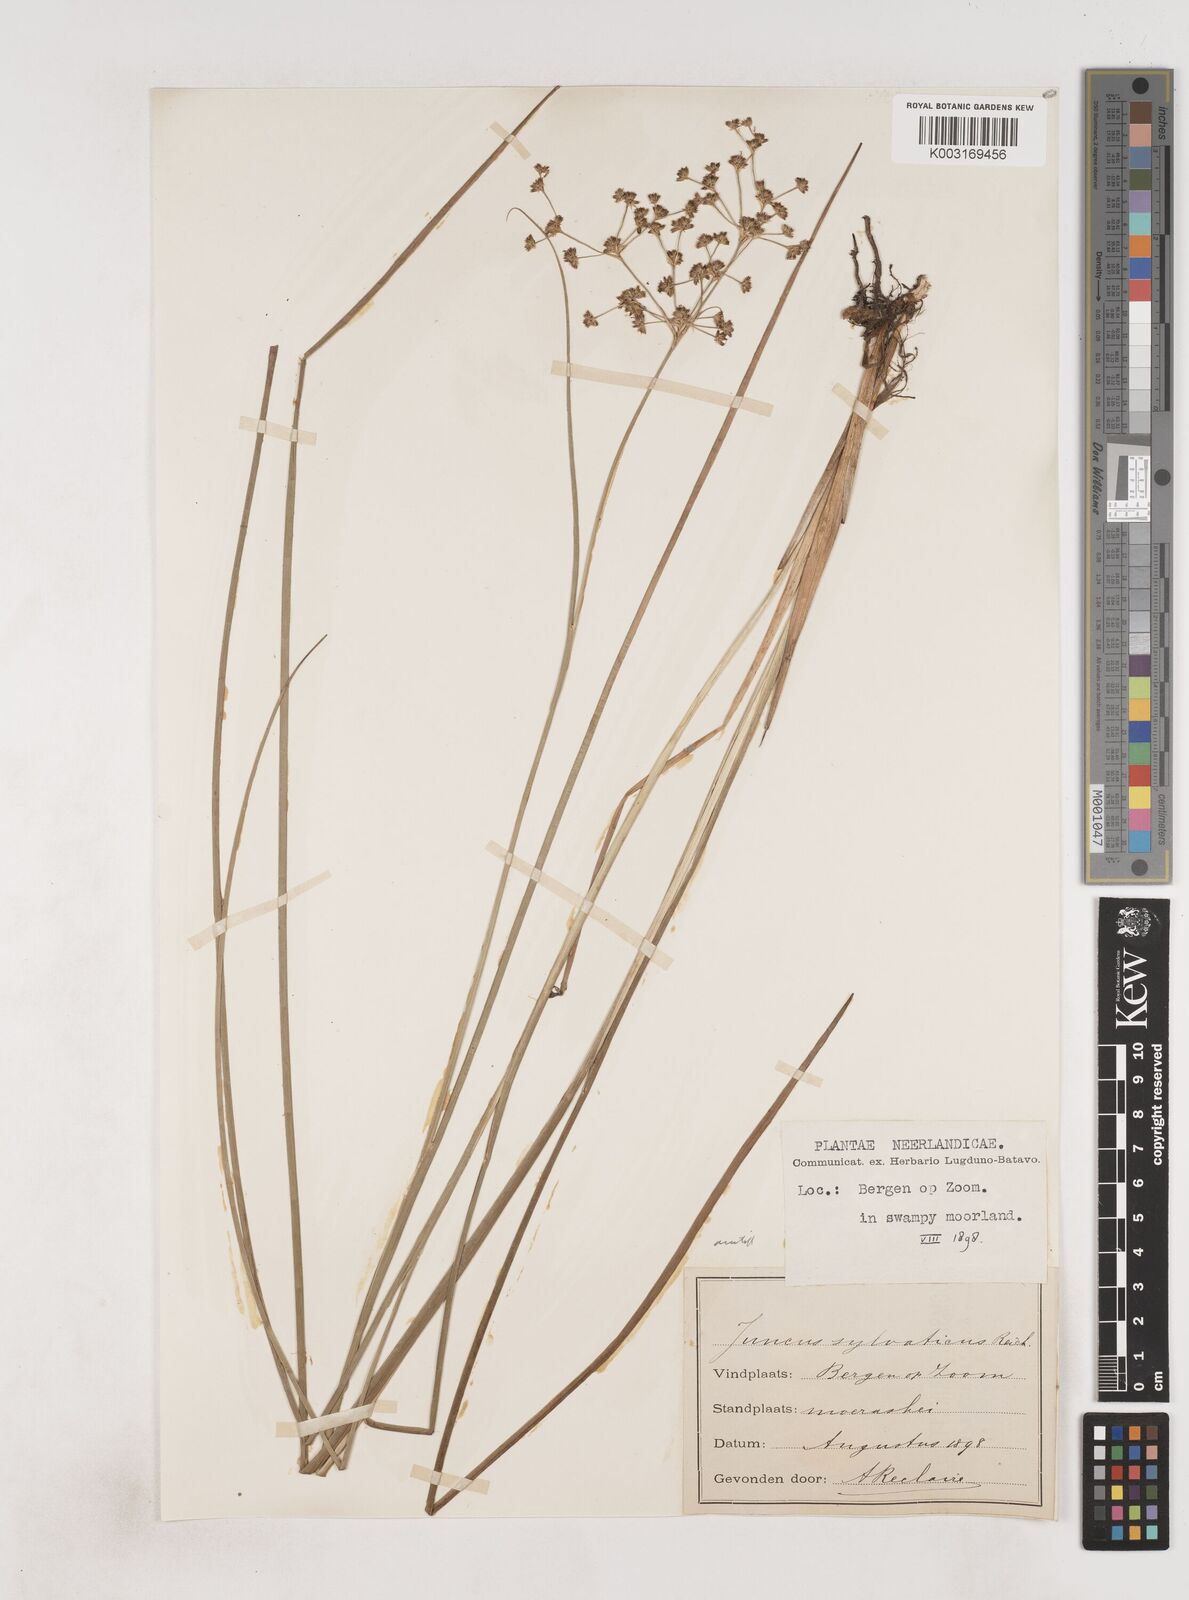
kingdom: Plantae
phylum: Tracheophyta
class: Liliopsida
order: Poales
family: Juncaceae
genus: Juncus
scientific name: Juncus acutiflorus
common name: Sharp-flowered rush
